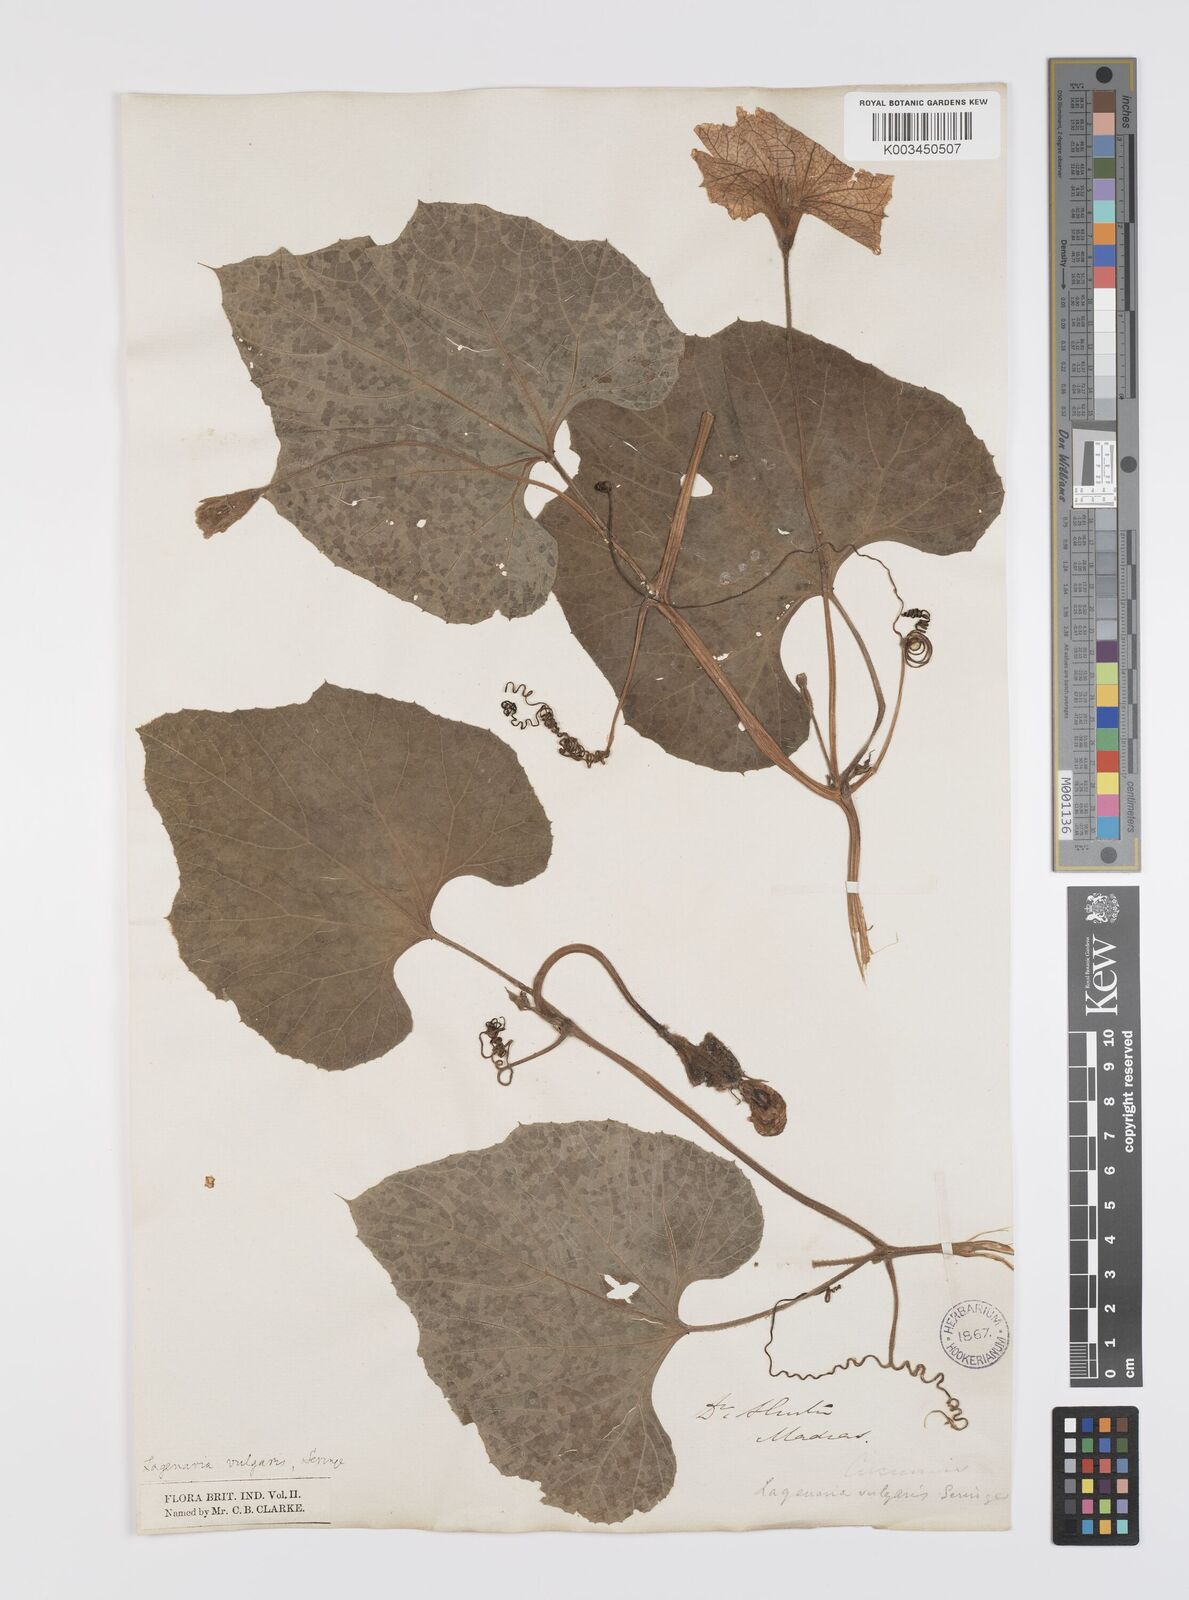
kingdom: Plantae
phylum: Tracheophyta
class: Magnoliopsida
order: Cucurbitales
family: Cucurbitaceae
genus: Lagenaria
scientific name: Lagenaria siceraria
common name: Bottle gourd
